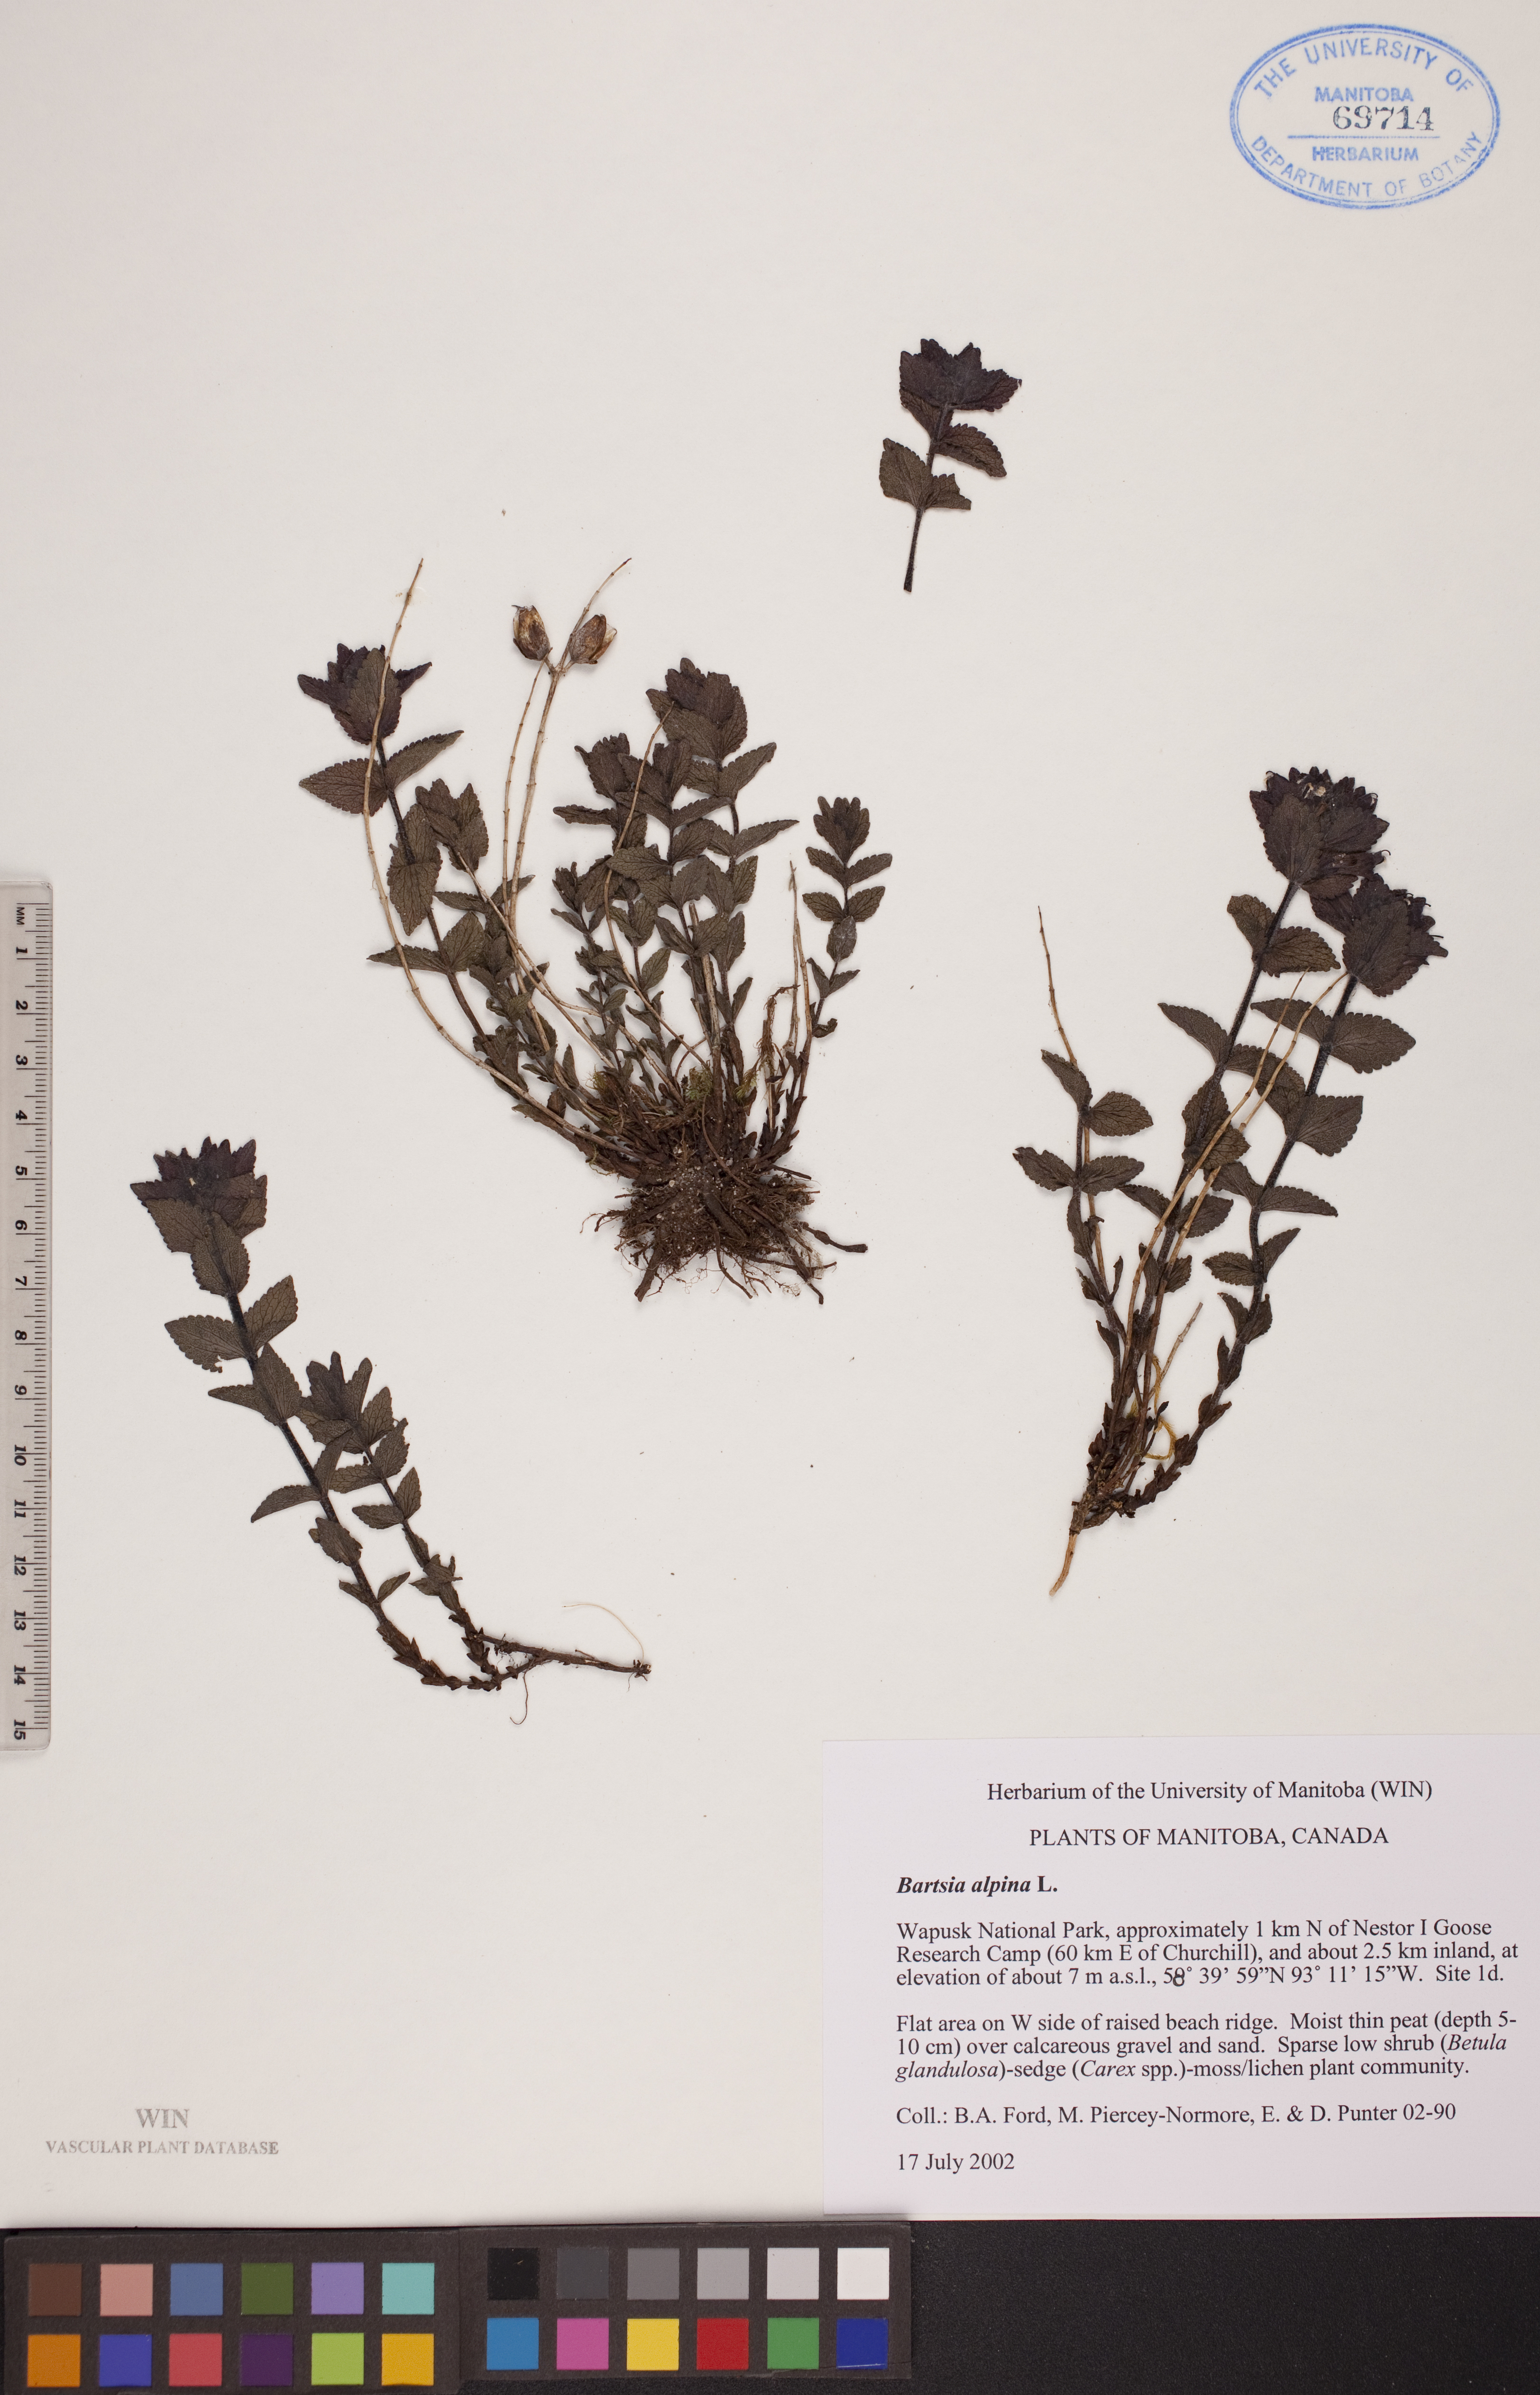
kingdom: Plantae
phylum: Tracheophyta
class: Magnoliopsida
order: Lamiales
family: Orobanchaceae
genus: Bartsia
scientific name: Bartsia alpina
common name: Alpine bartsia
